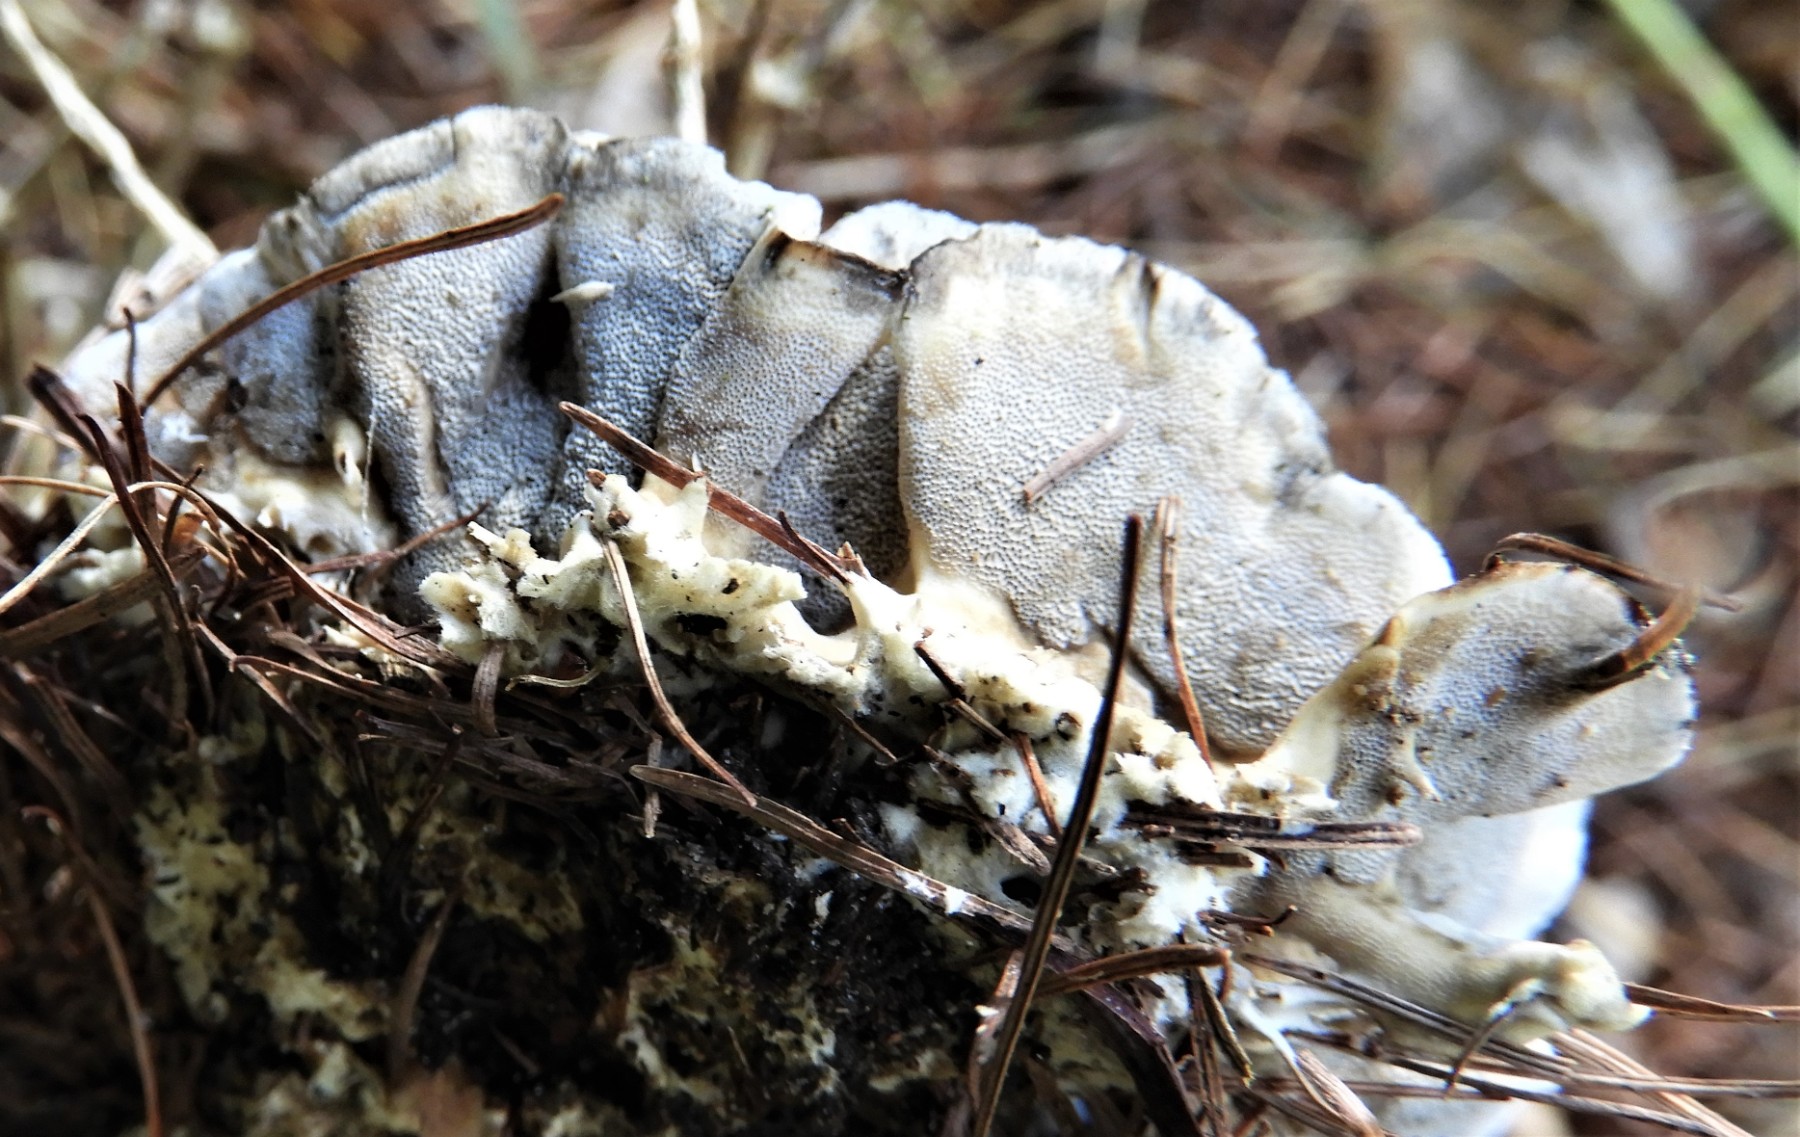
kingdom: Fungi
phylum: Basidiomycota
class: Agaricomycetes
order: Polyporales
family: Polyporaceae
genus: Cyanosporus
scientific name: Cyanosporus caesius
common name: blålig kødporesvamp
